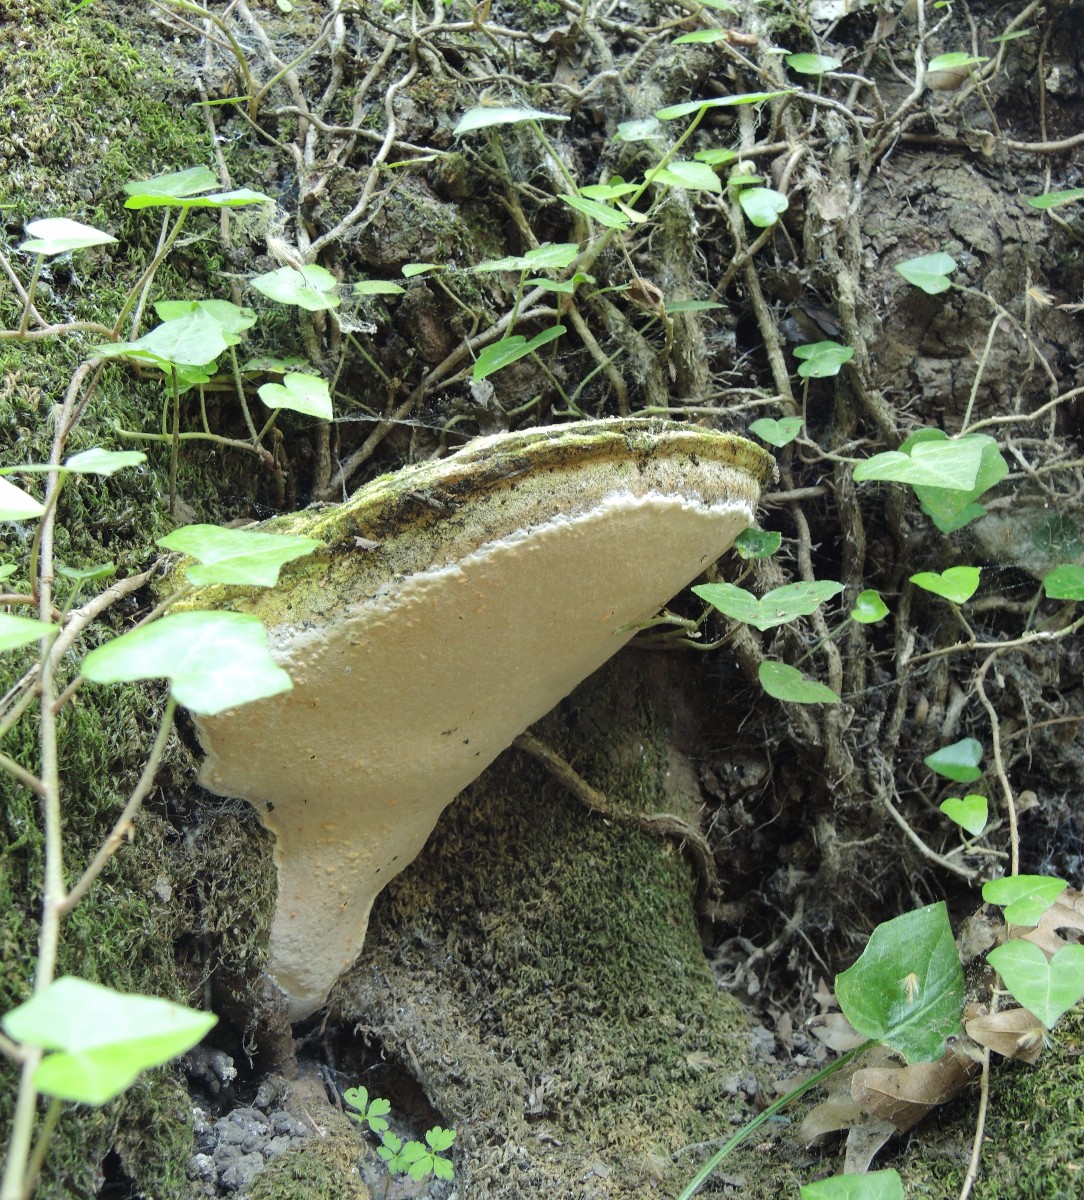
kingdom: Fungi
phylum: Basidiomycota
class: Agaricomycetes
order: Polyporales
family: Meripilaceae
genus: Rigidoporus
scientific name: Rigidoporus ulmarius
